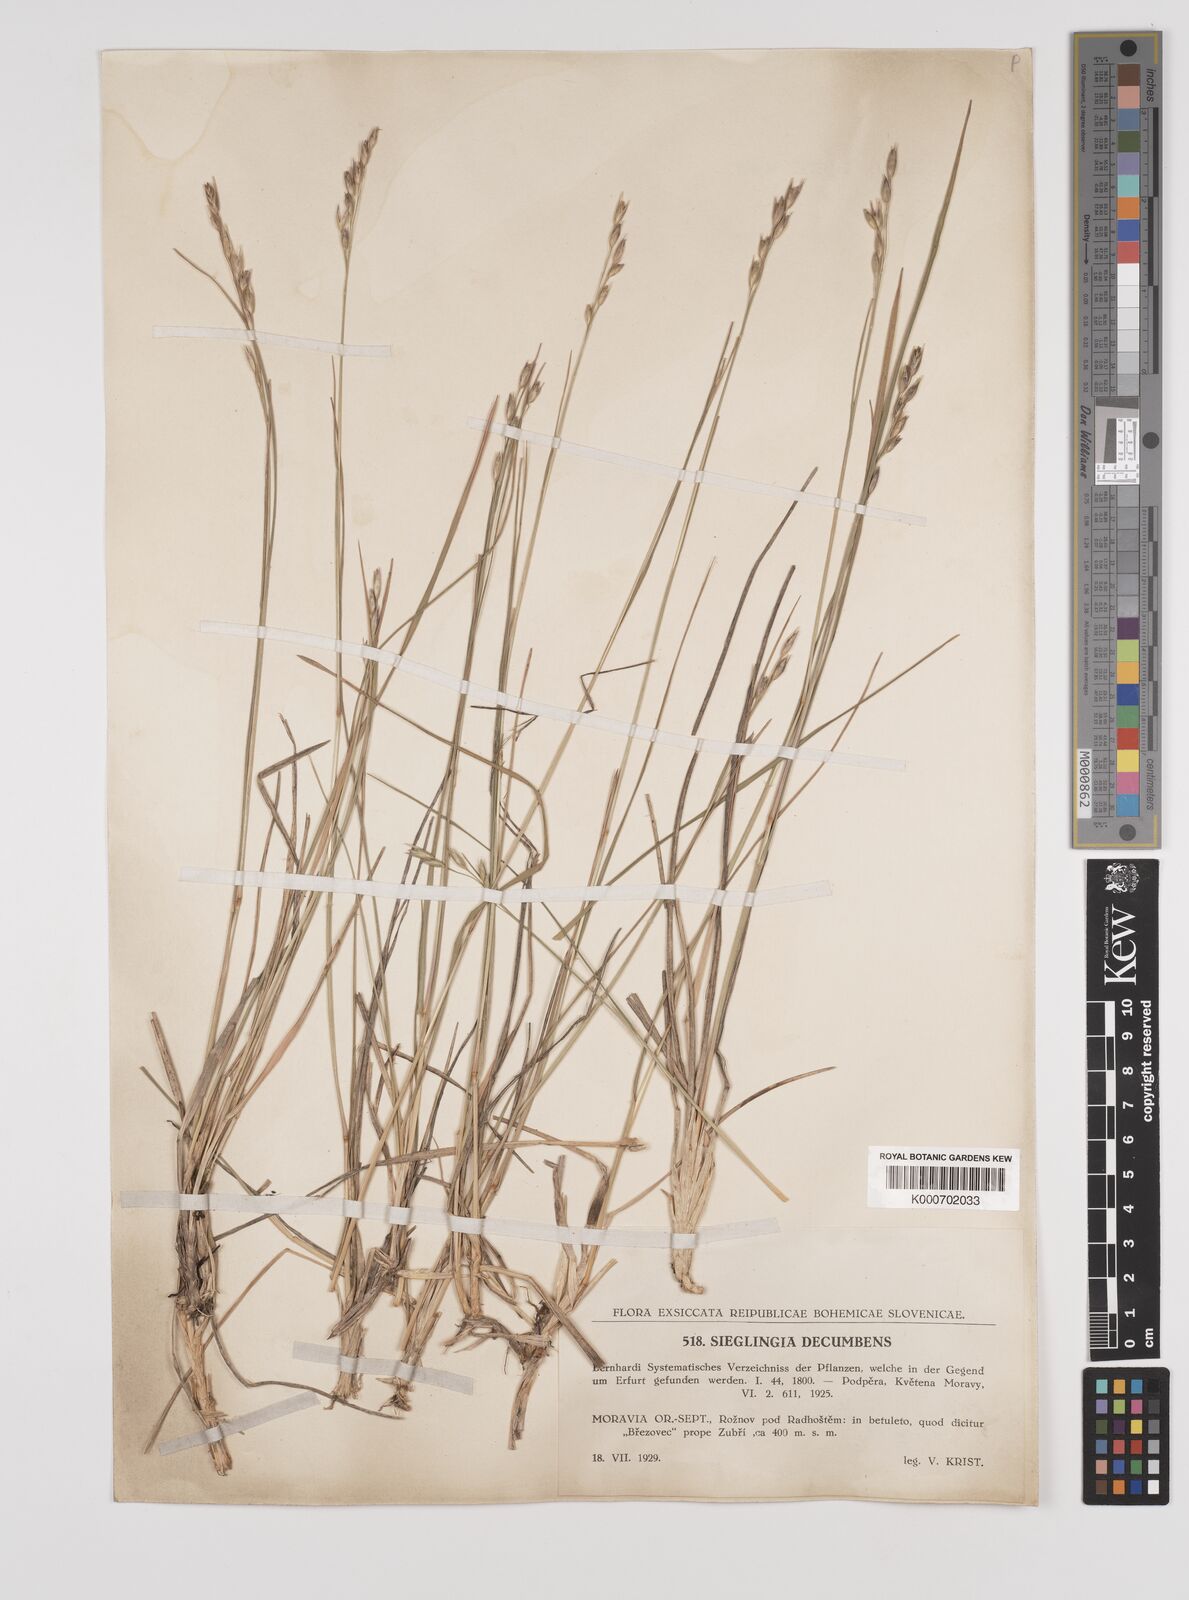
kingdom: Plantae
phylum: Tracheophyta
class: Liliopsida
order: Poales
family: Poaceae
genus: Danthonia
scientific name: Danthonia decumbens
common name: Common heathgrass
